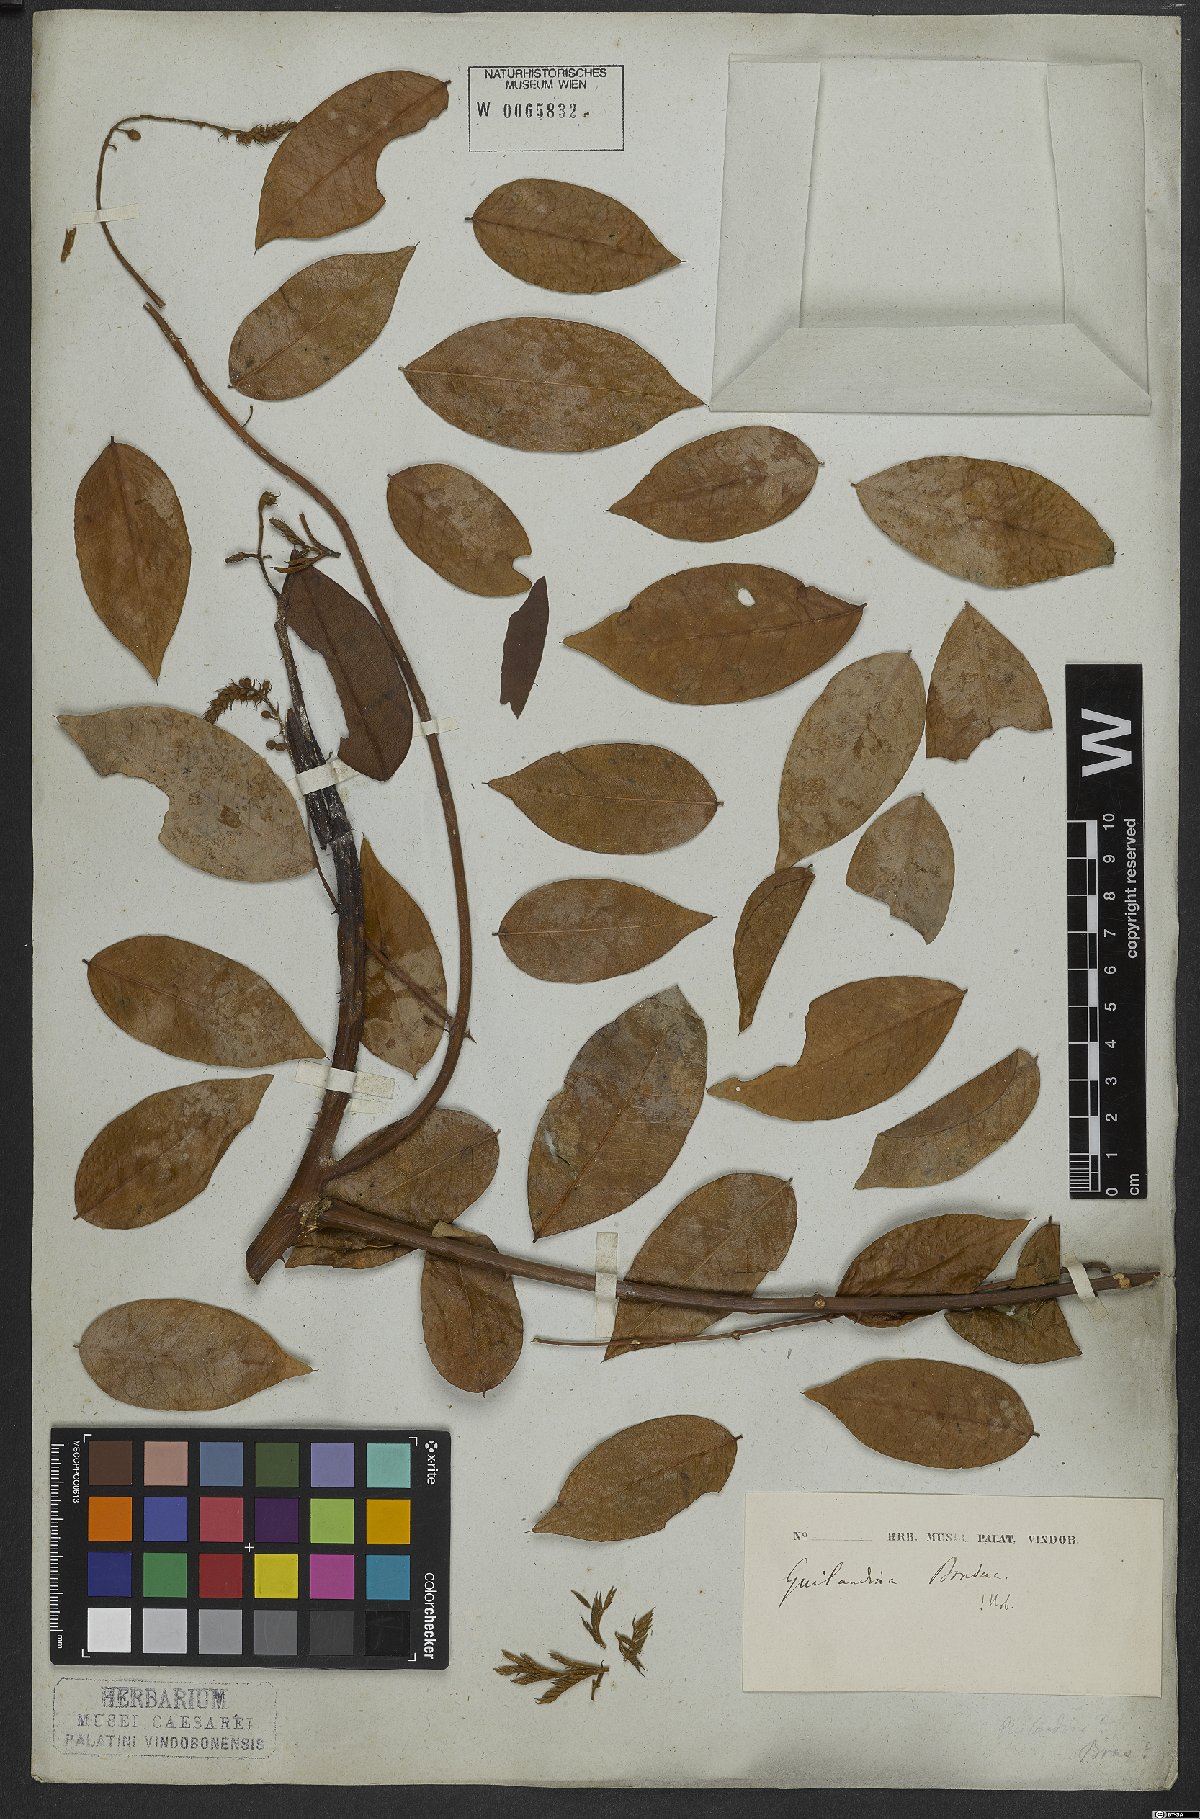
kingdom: Plantae
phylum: Tracheophyta
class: Magnoliopsida
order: Fabales
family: Fabaceae
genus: Guilandina
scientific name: Guilandina bonduc
